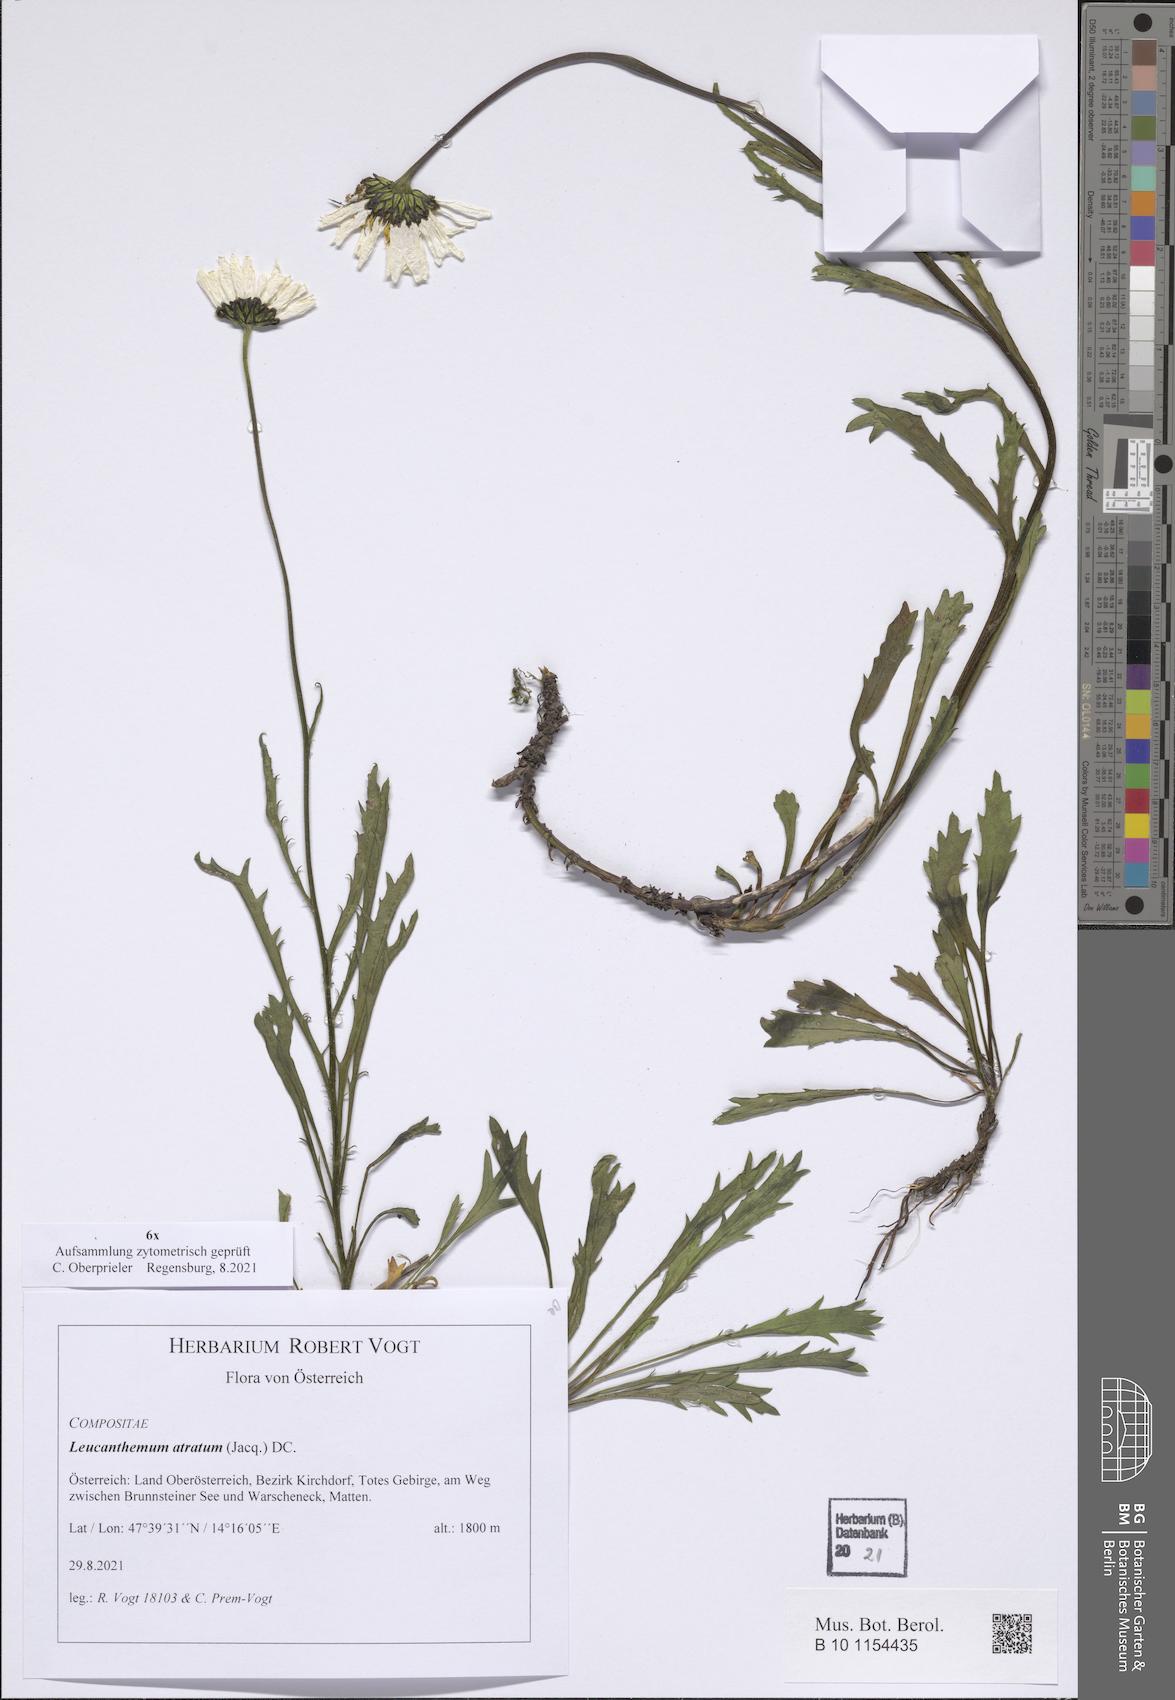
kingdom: Plantae
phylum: Tracheophyta
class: Magnoliopsida
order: Asterales
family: Asteraceae
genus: Leucanthemum
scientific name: Leucanthemum atratum
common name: Saw-leaved moon-daisy
